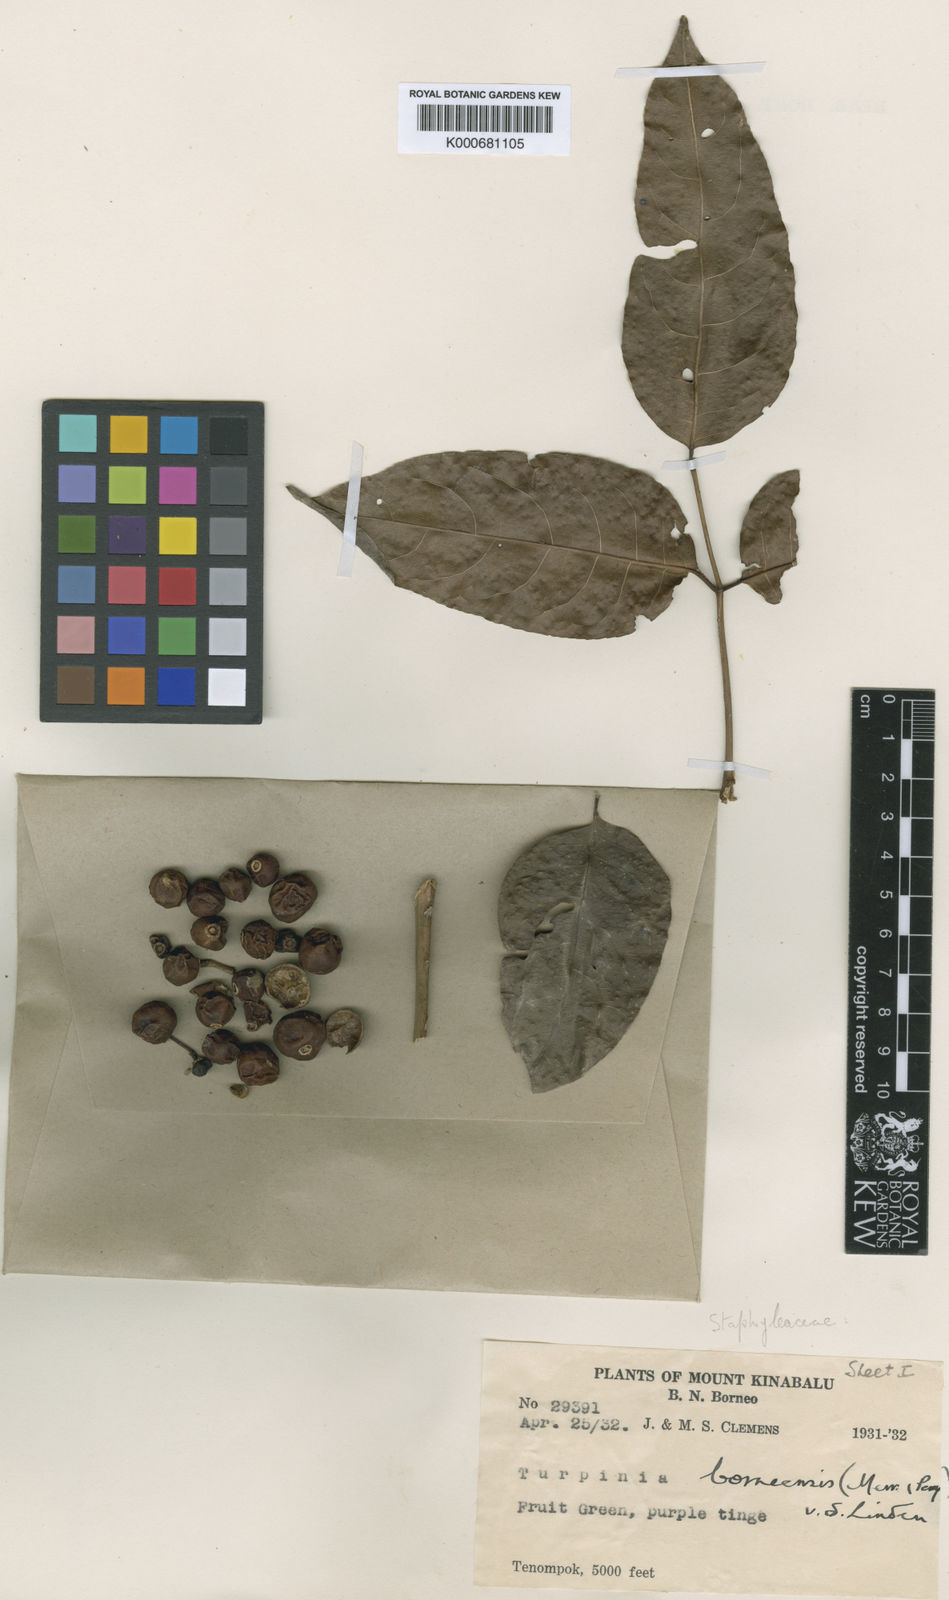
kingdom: Plantae
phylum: Tracheophyta
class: Magnoliopsida
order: Crossosomatales
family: Staphyleaceae
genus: Dalrympelea
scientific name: Dalrympelea borneensis
